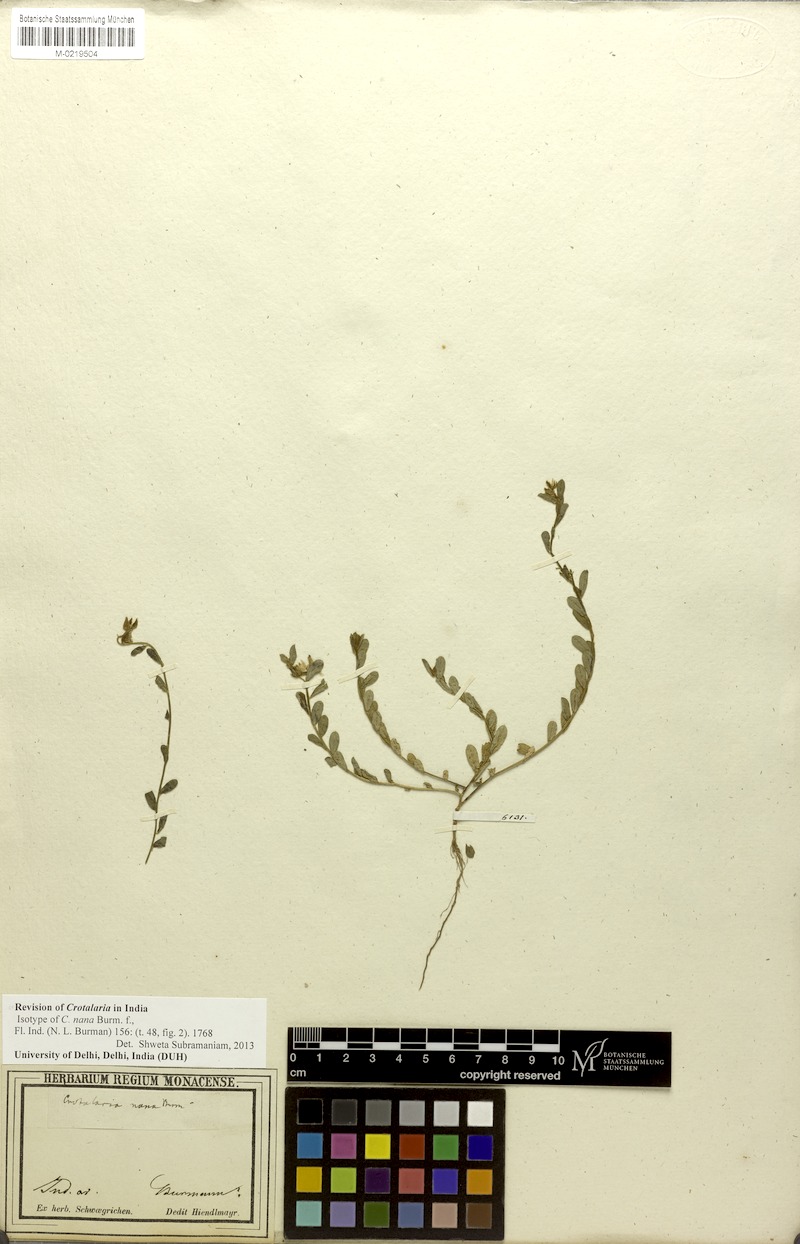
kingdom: Plantae
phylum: Tracheophyta
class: Magnoliopsida
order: Fabales
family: Fabaceae
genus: Crotalaria
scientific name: Crotalaria nana
